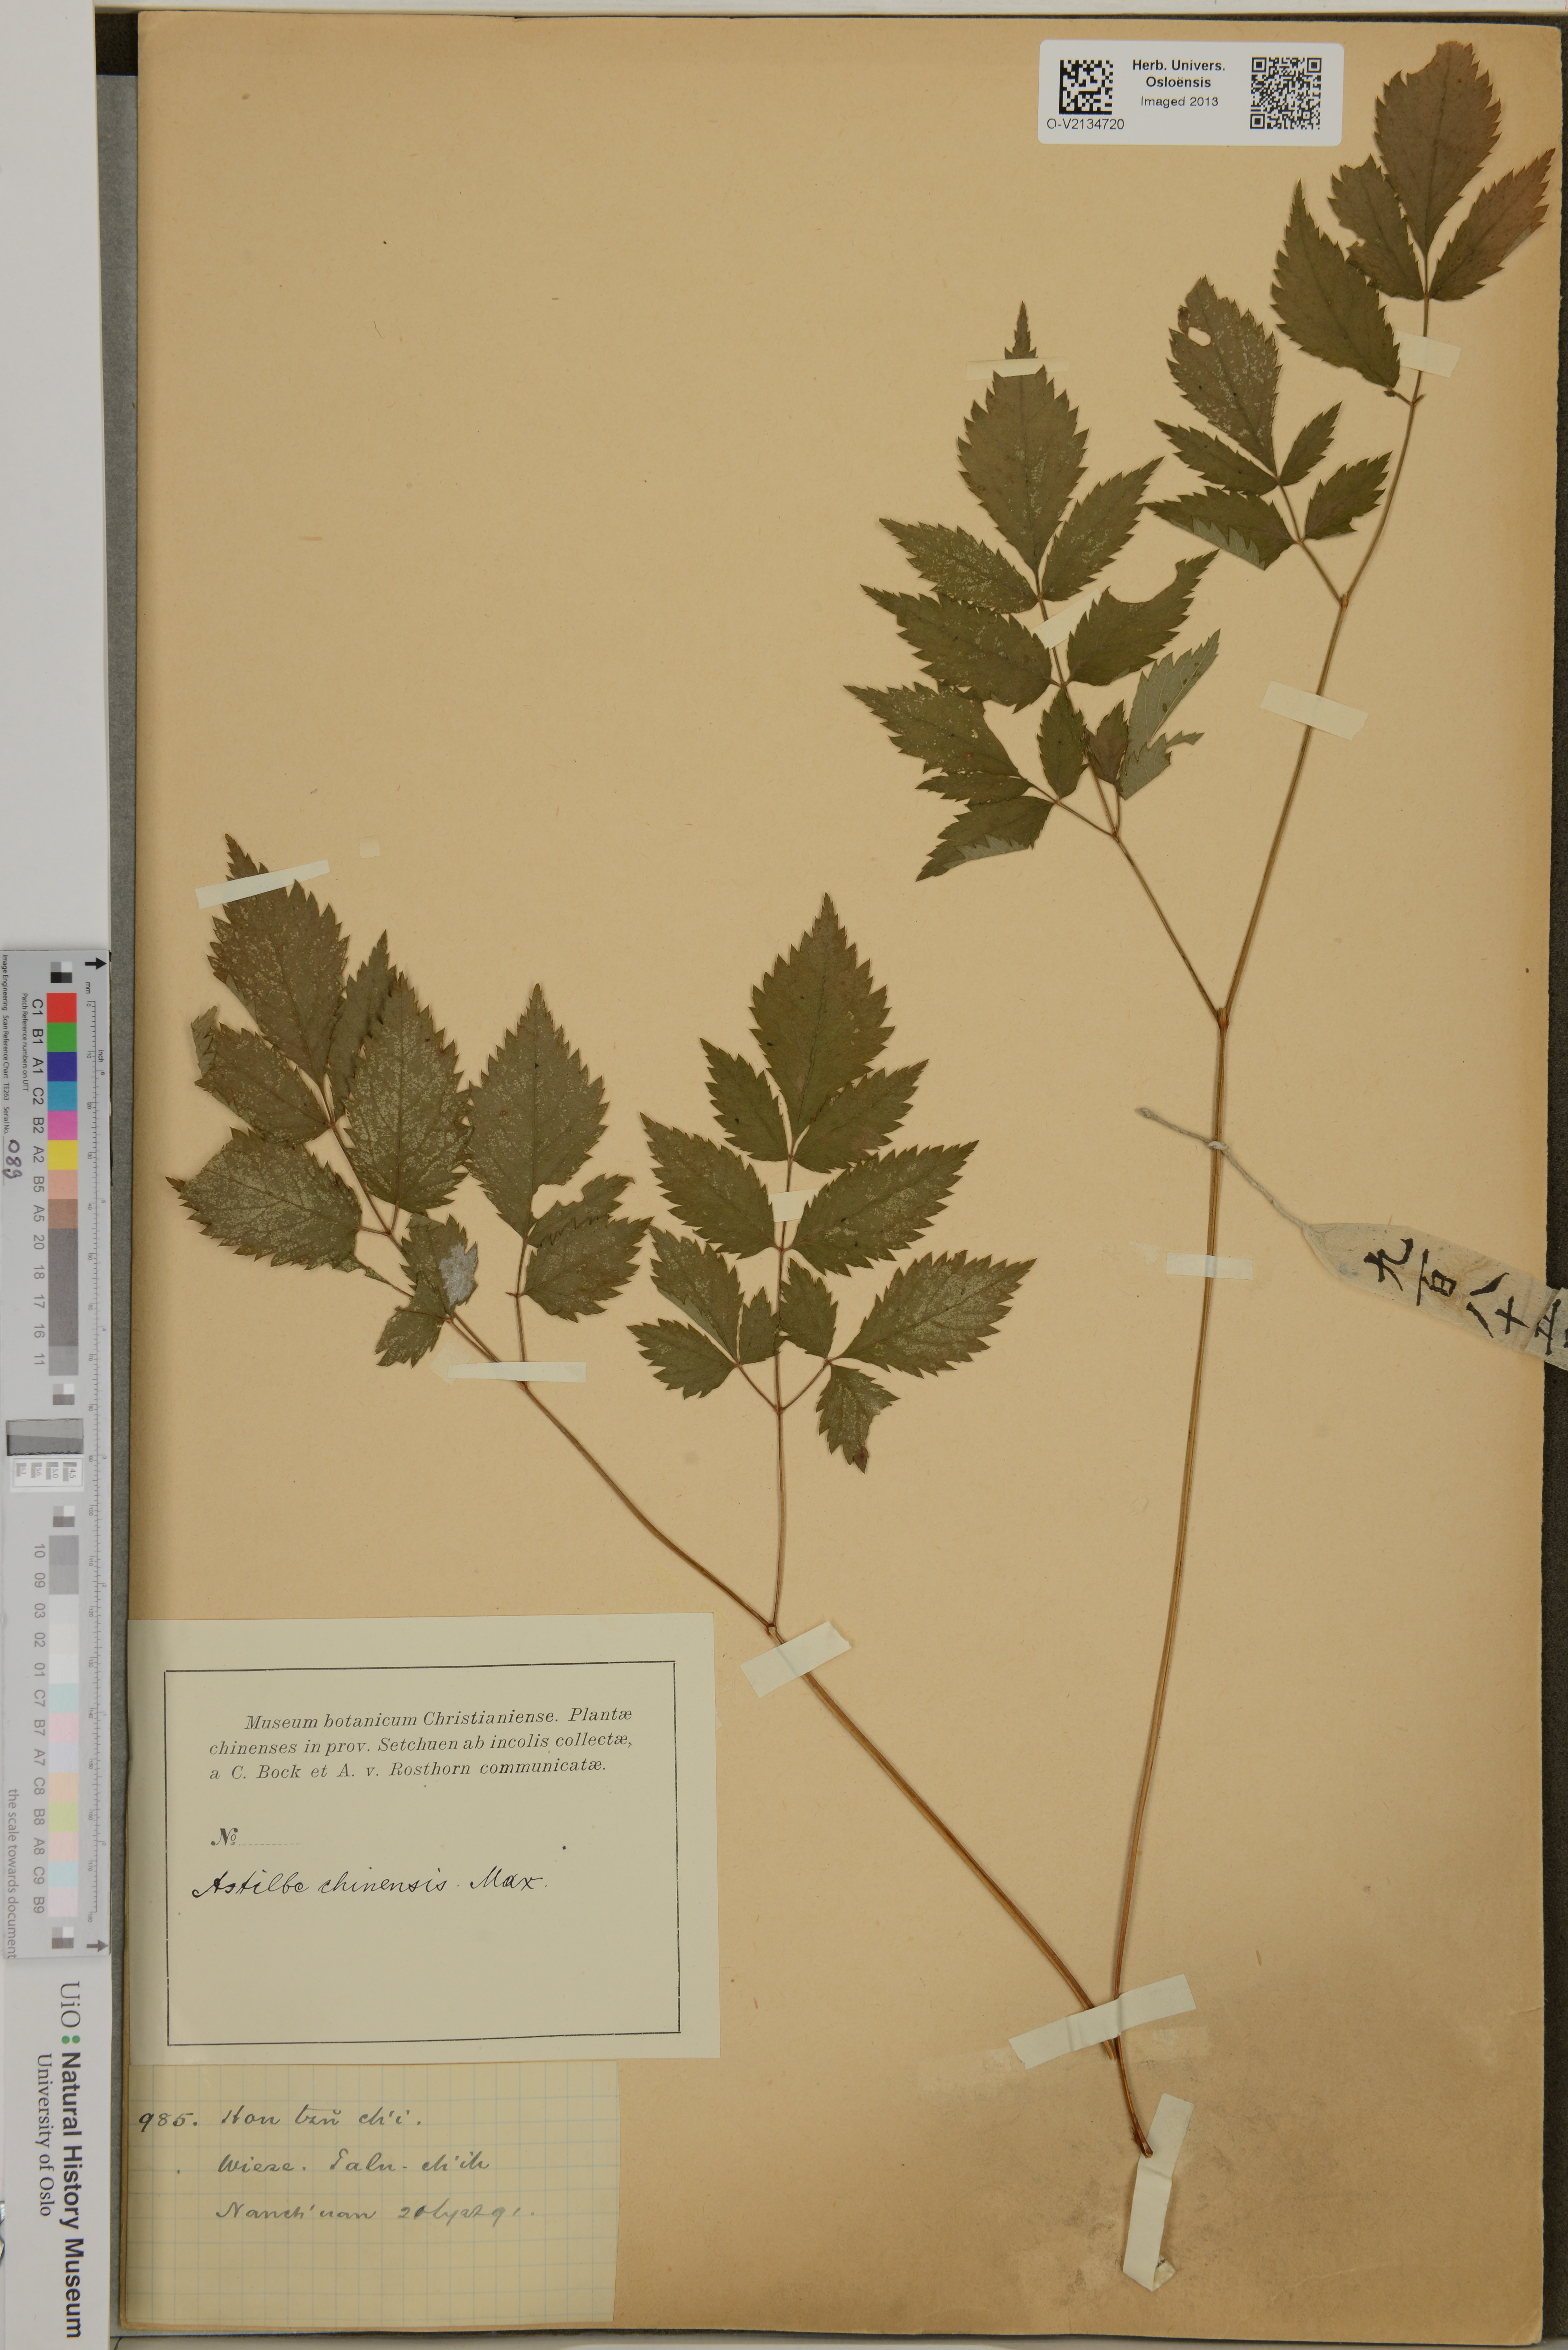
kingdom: Plantae
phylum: Tracheophyta
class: Magnoliopsida
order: Saxifragales
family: Saxifragaceae
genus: Astilbe
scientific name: Astilbe rubra
